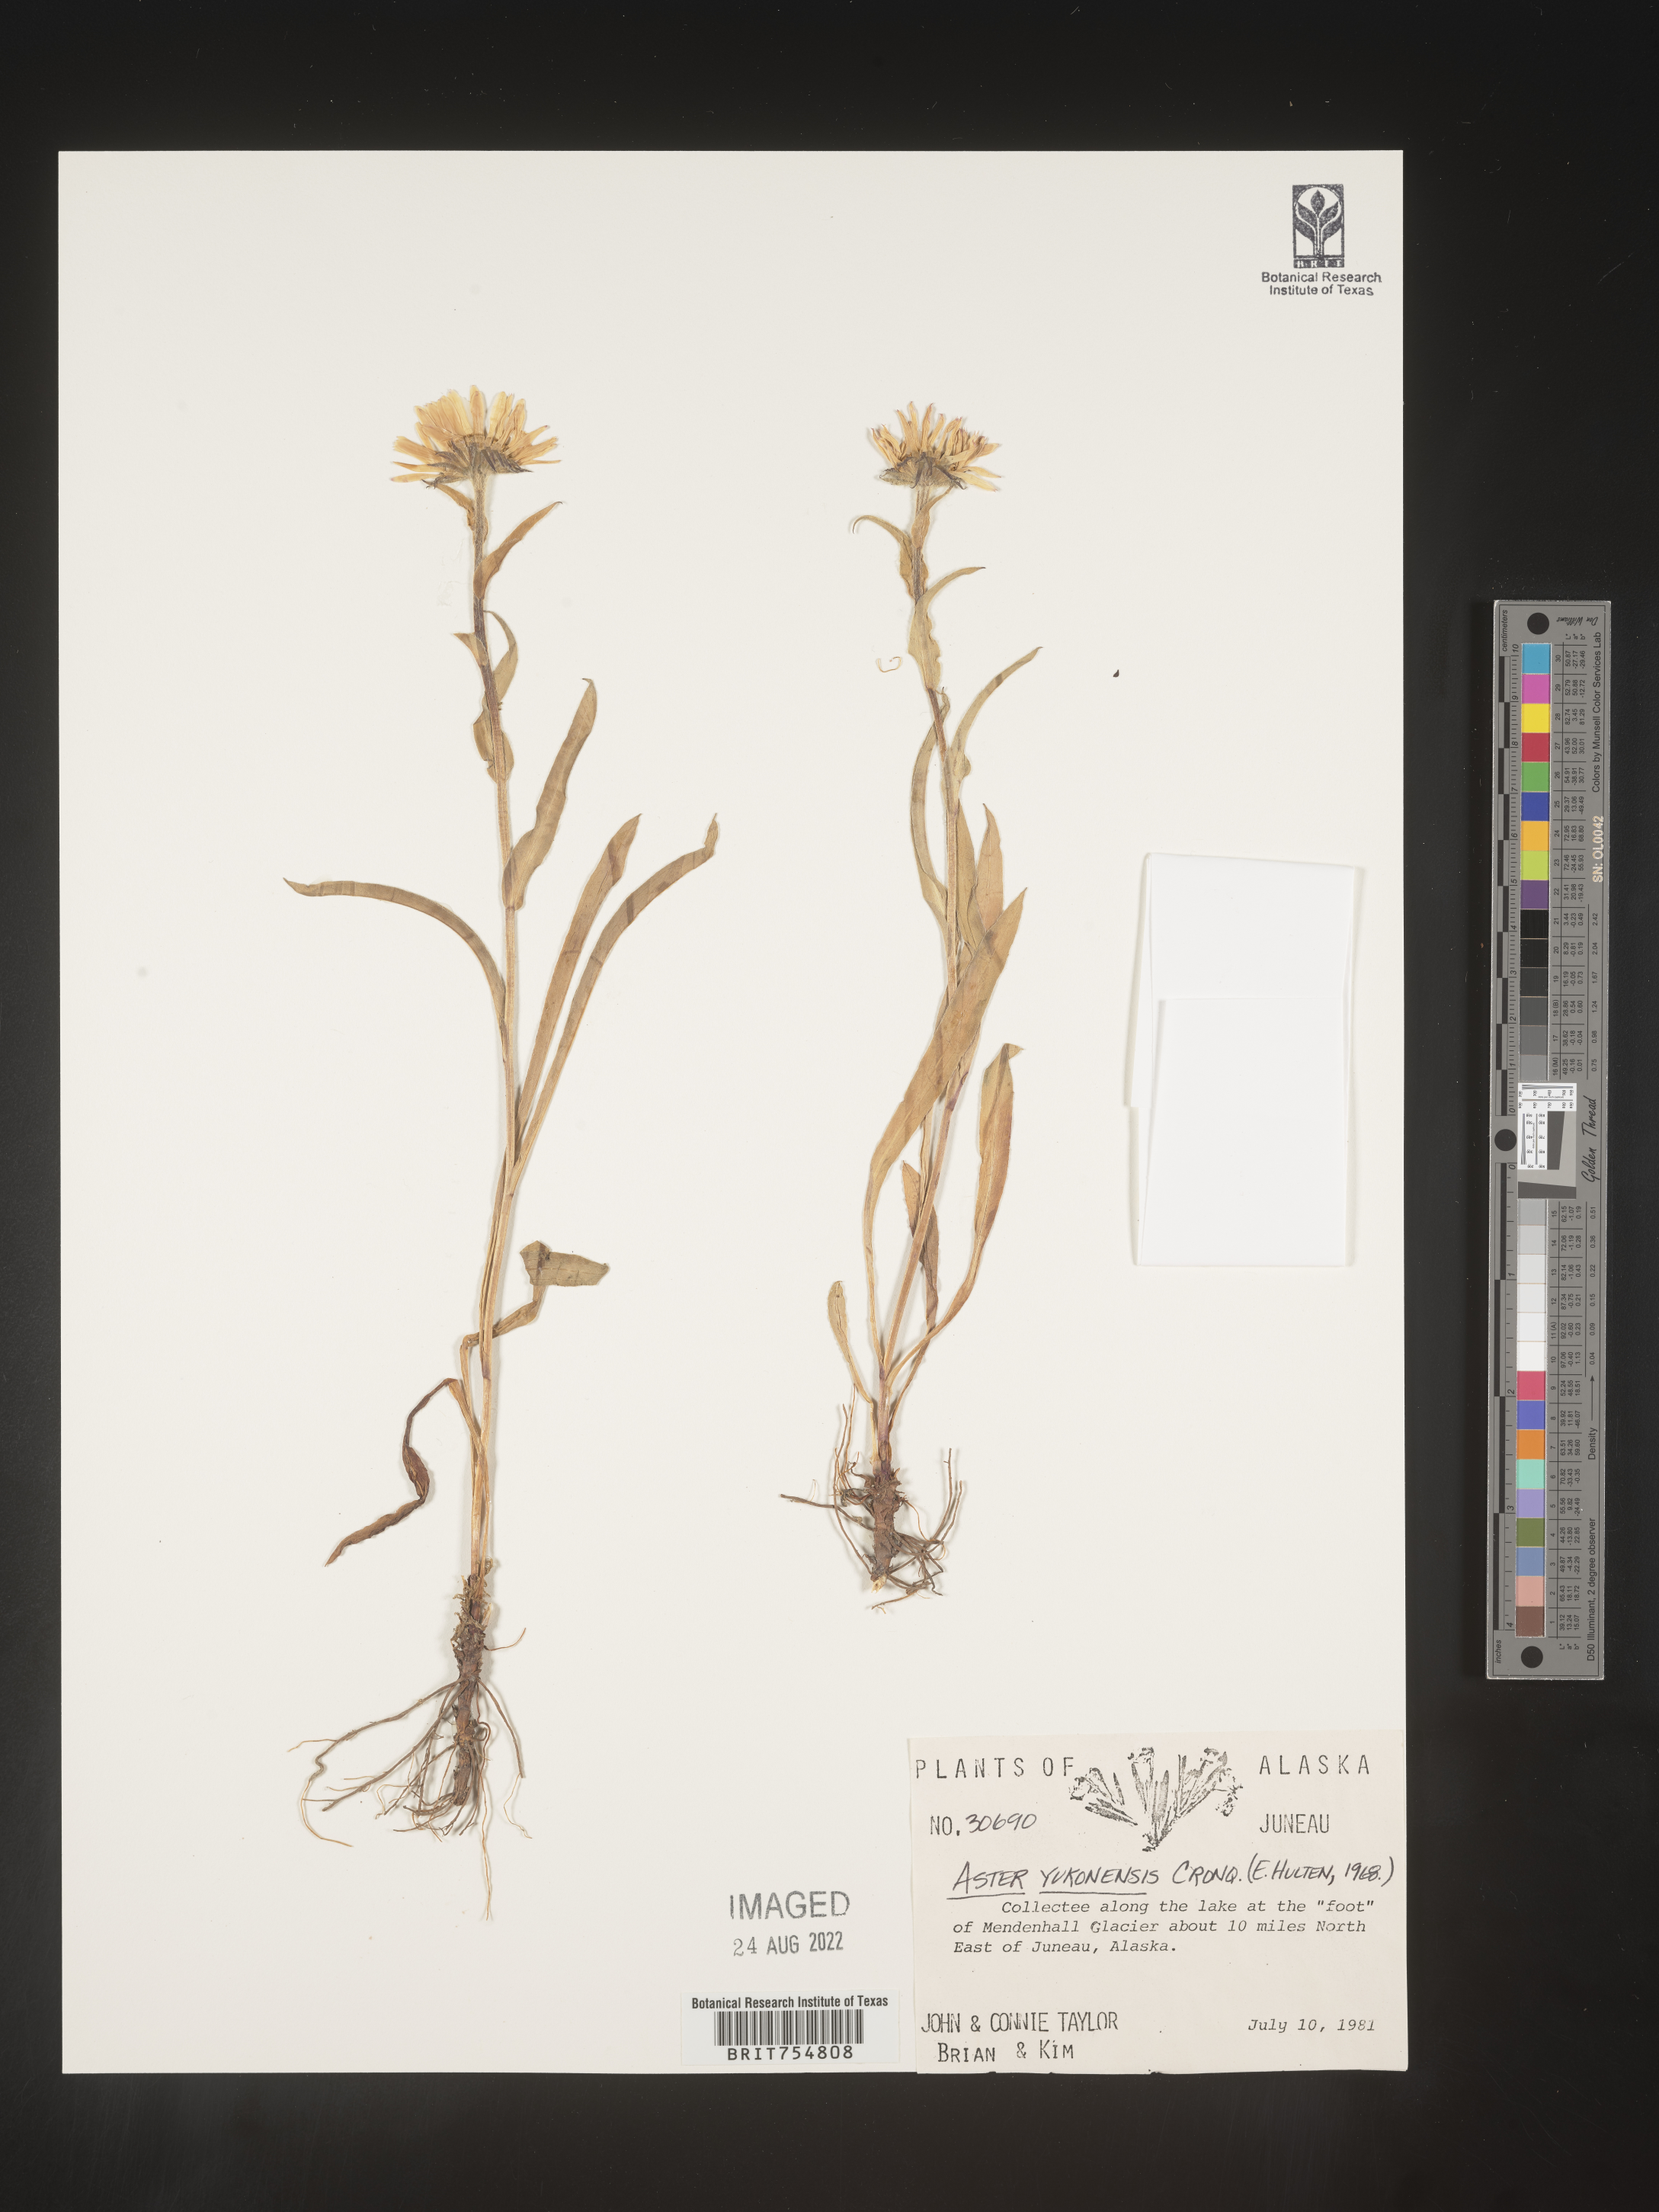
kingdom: Plantae
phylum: Tracheophyta
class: Magnoliopsida
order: Asterales
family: Asteraceae
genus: Symphyotrichum
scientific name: Symphyotrichum yukonense
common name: Yukon aster
